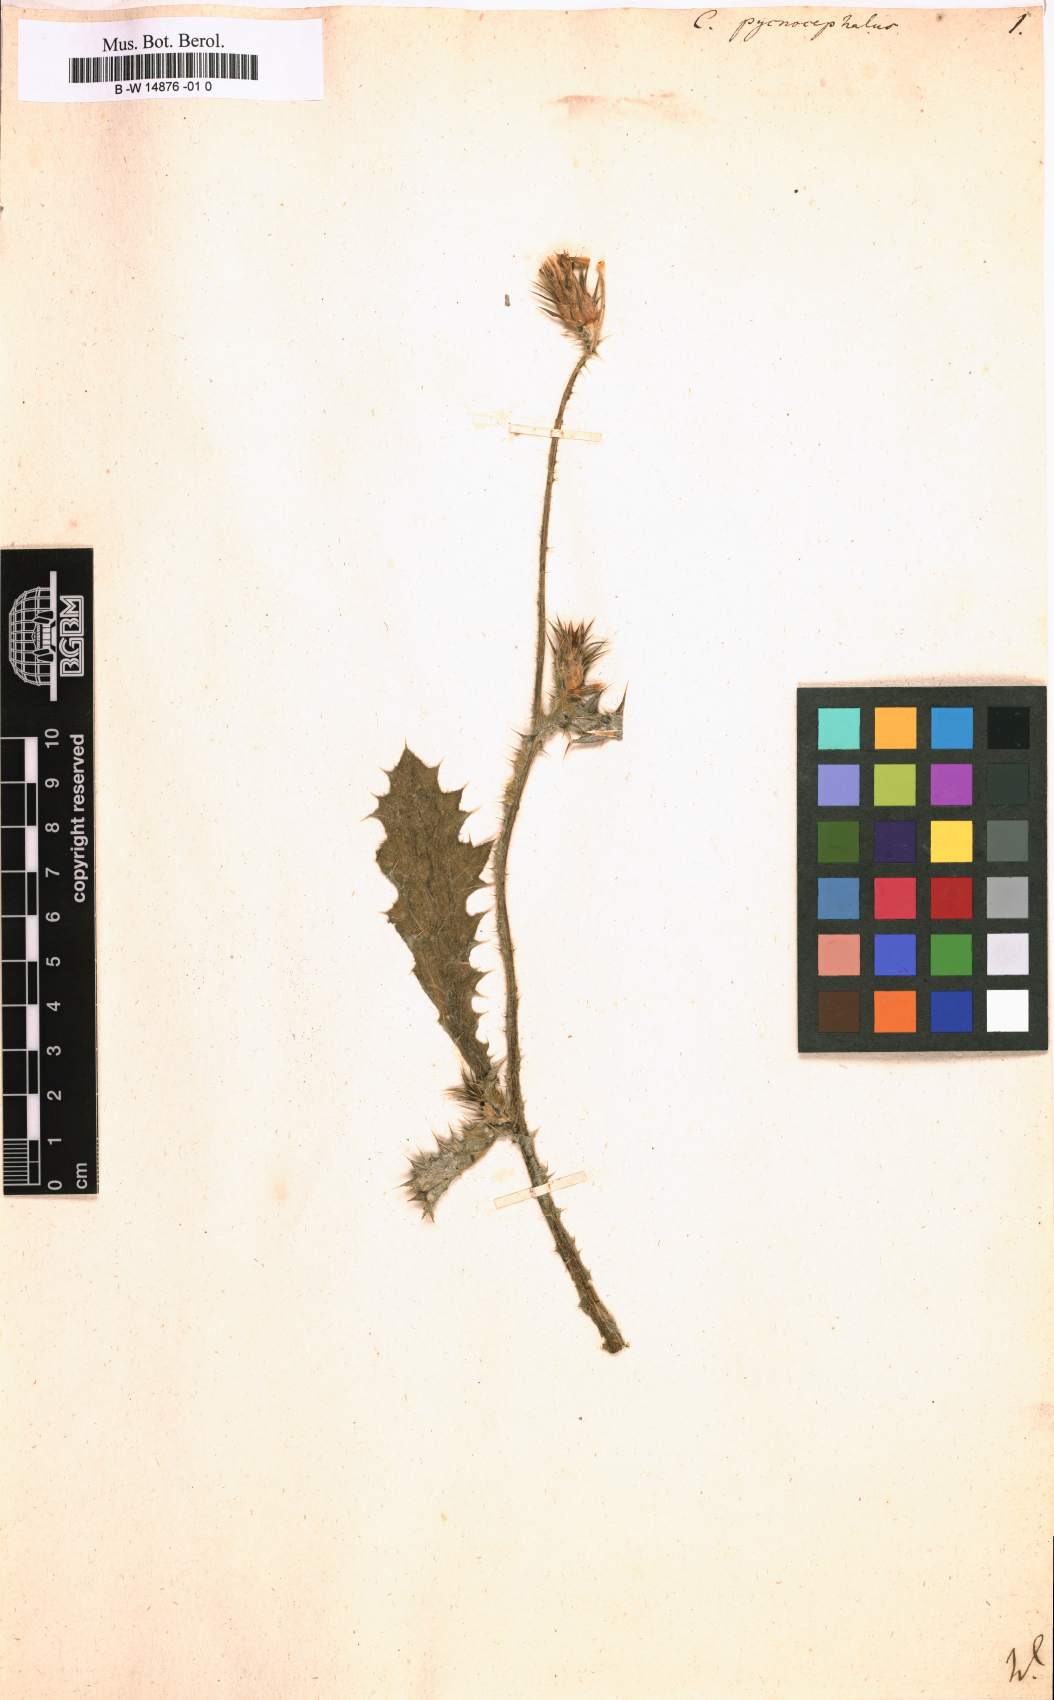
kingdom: Plantae
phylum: Tracheophyta
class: Magnoliopsida
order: Asterales
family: Asteraceae
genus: Carduus
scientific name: Carduus pycnocephalus
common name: Plymouth thistle
